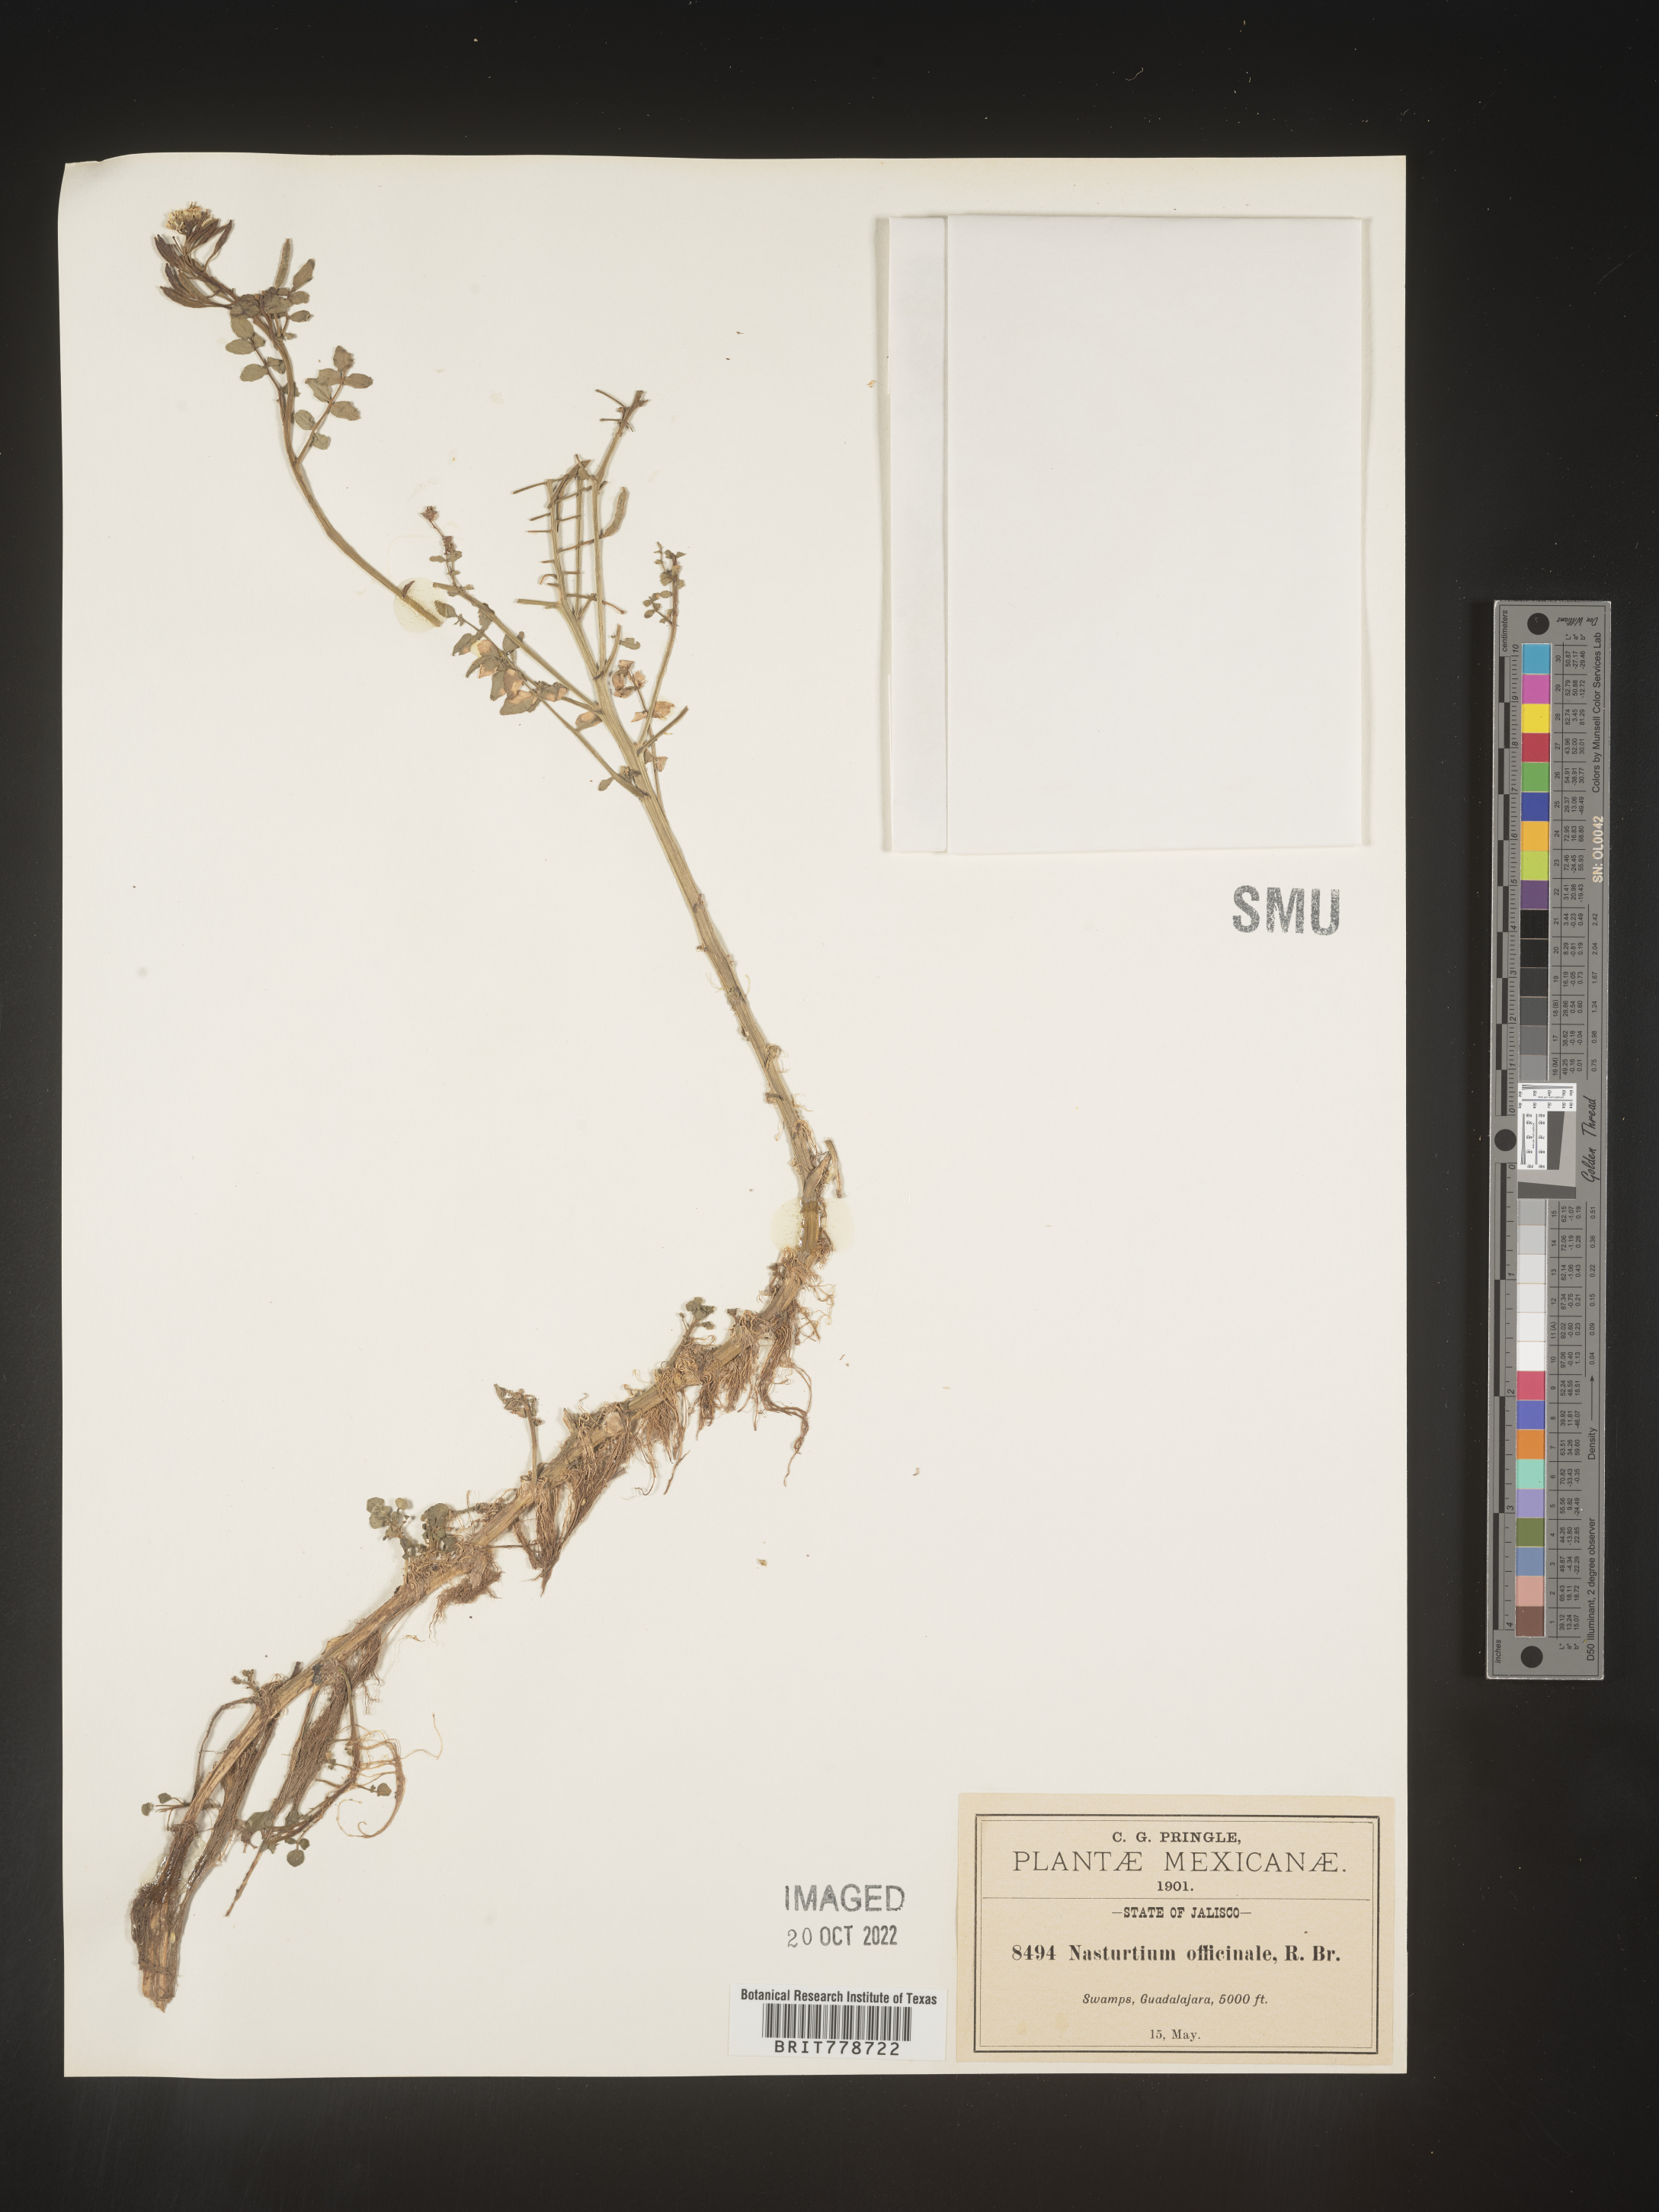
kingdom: Plantae
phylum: Tracheophyta
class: Magnoliopsida
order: Brassicales
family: Brassicaceae
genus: Rorippa
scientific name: Rorippa
